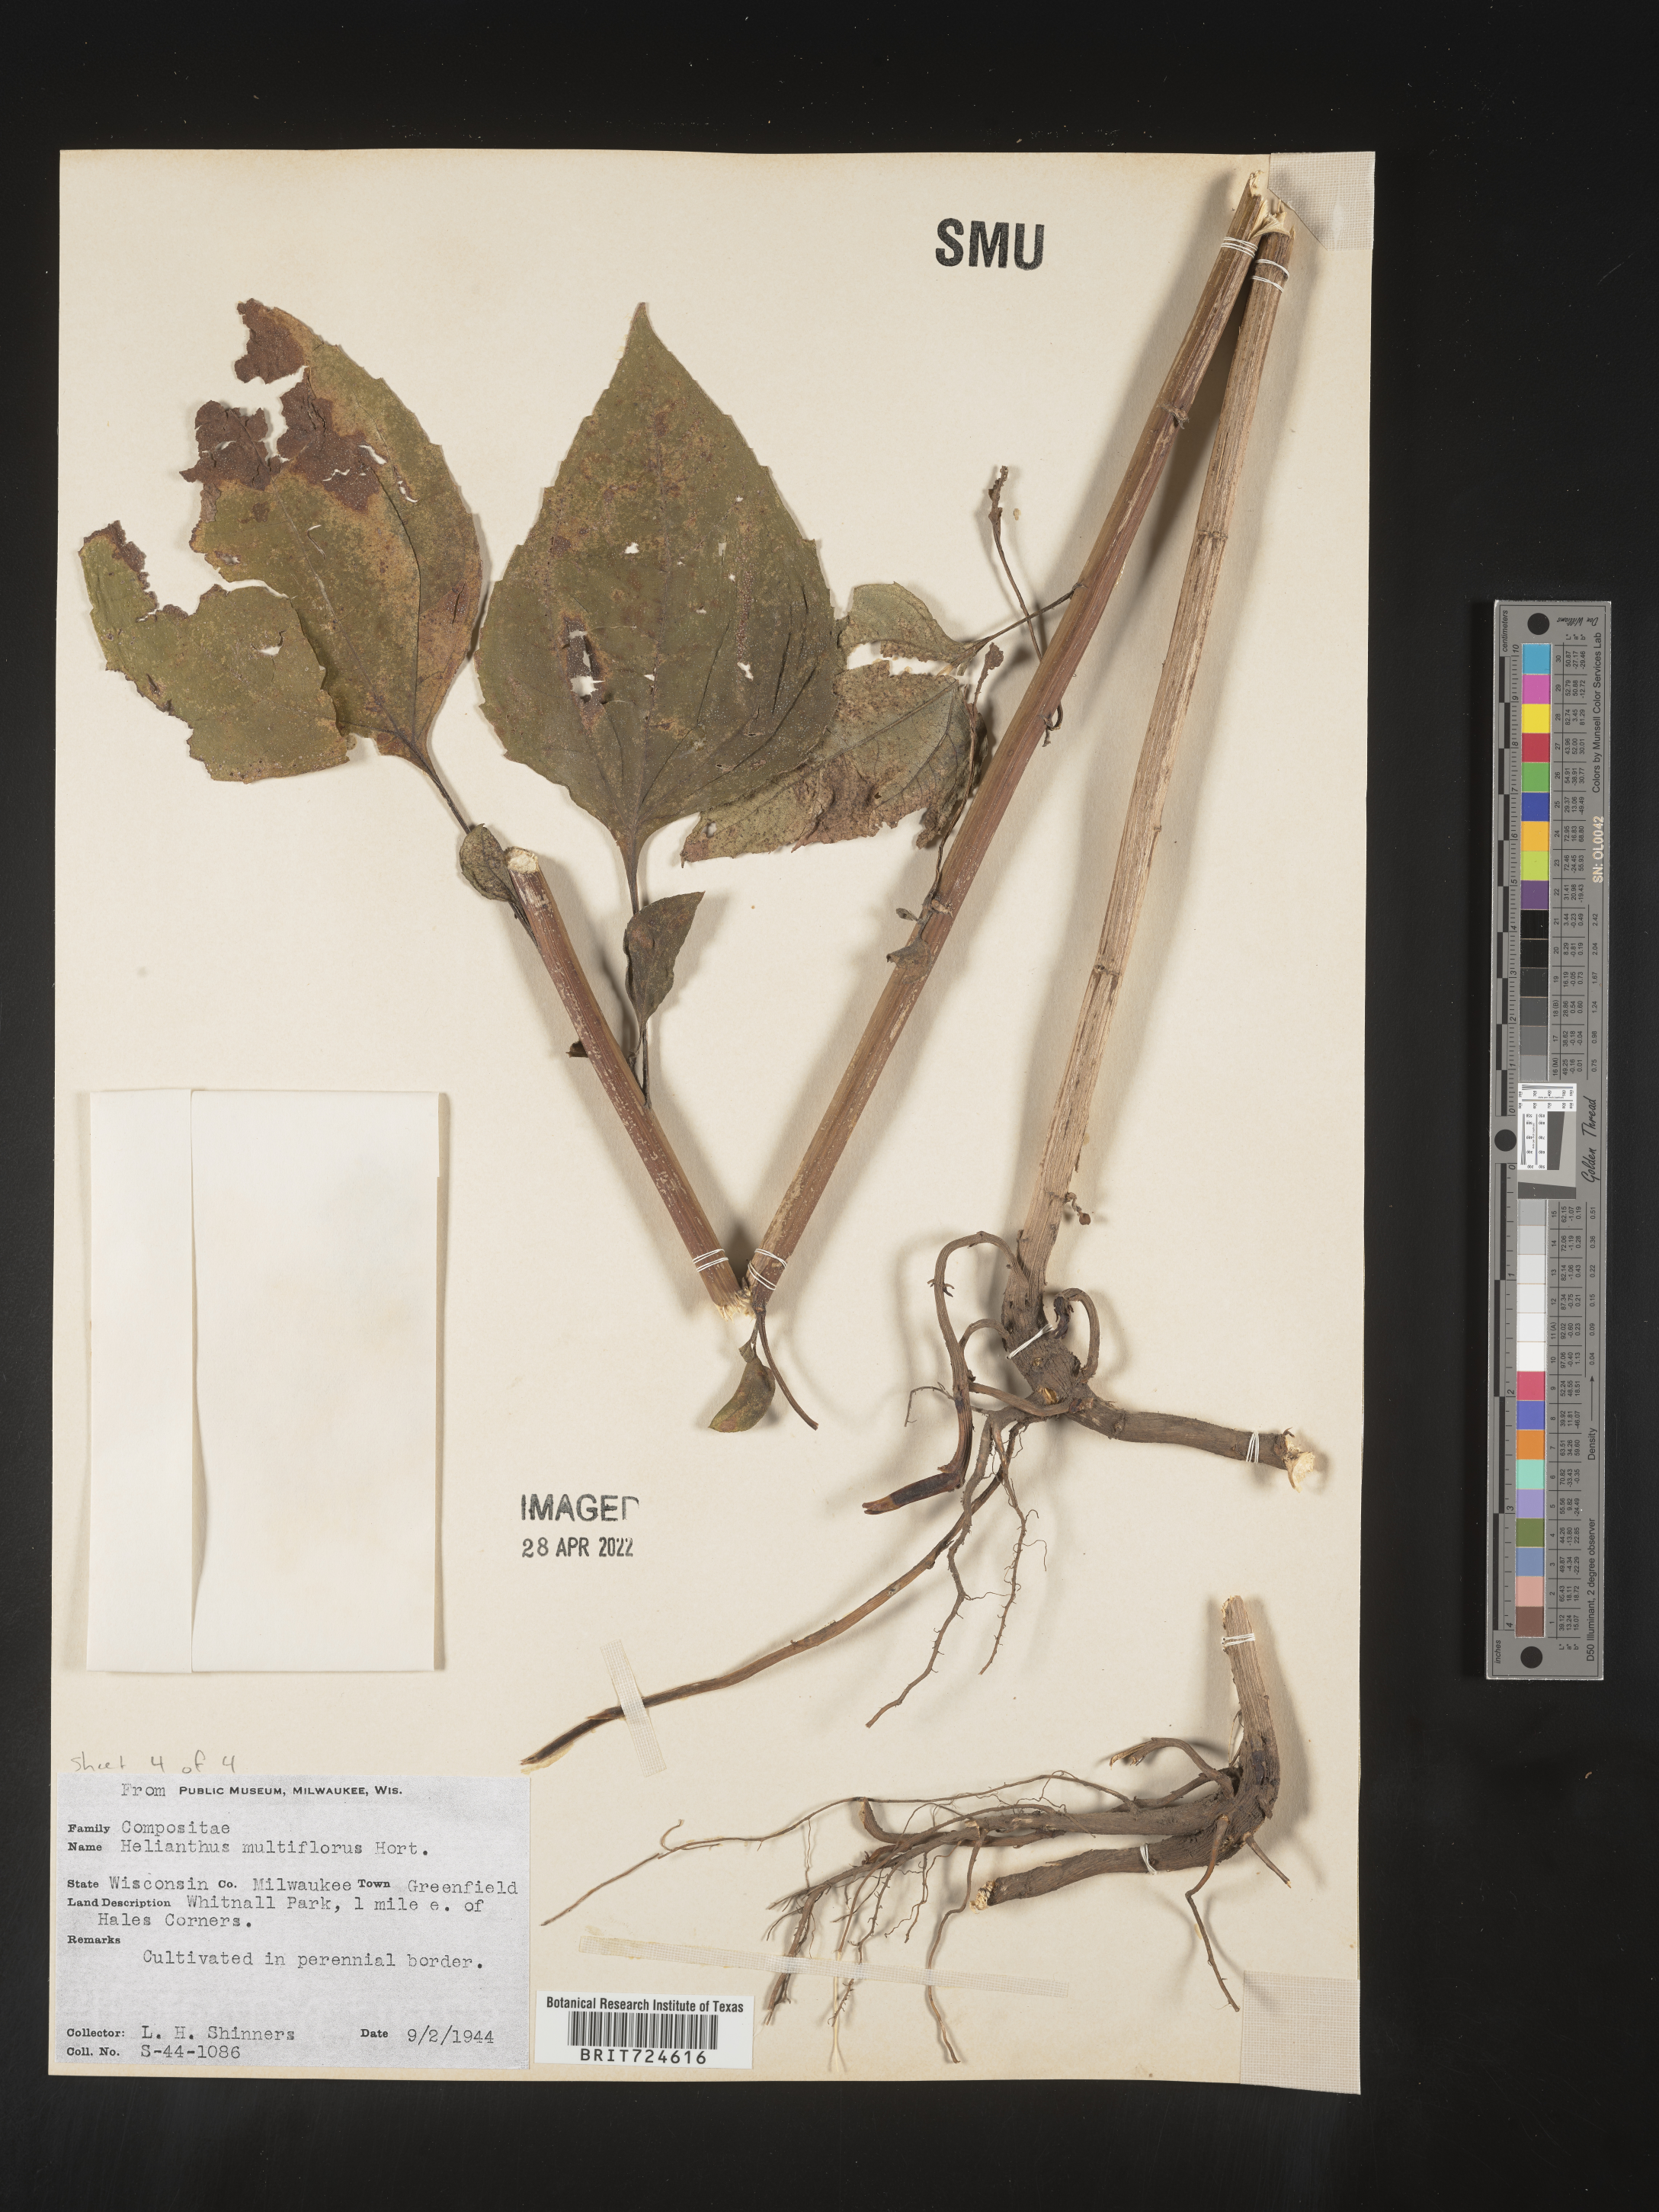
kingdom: Plantae
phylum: Tracheophyta
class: Magnoliopsida
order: Asterales
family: Asteraceae
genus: Helianthus
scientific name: Helianthus
